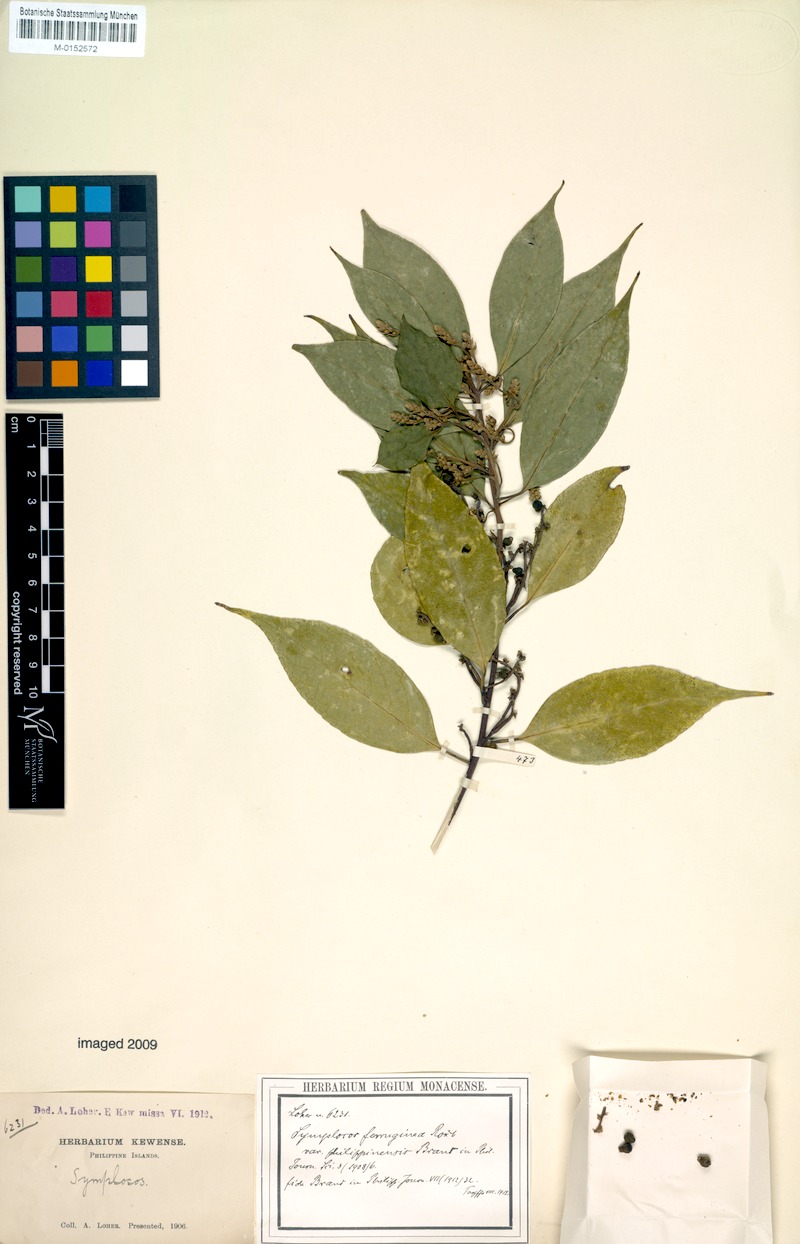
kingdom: Plantae
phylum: Tracheophyta
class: Magnoliopsida
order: Ericales
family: Symplocaceae
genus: Symplocos
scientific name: Symplocos cochinchinensis
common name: Buff hazelwood
